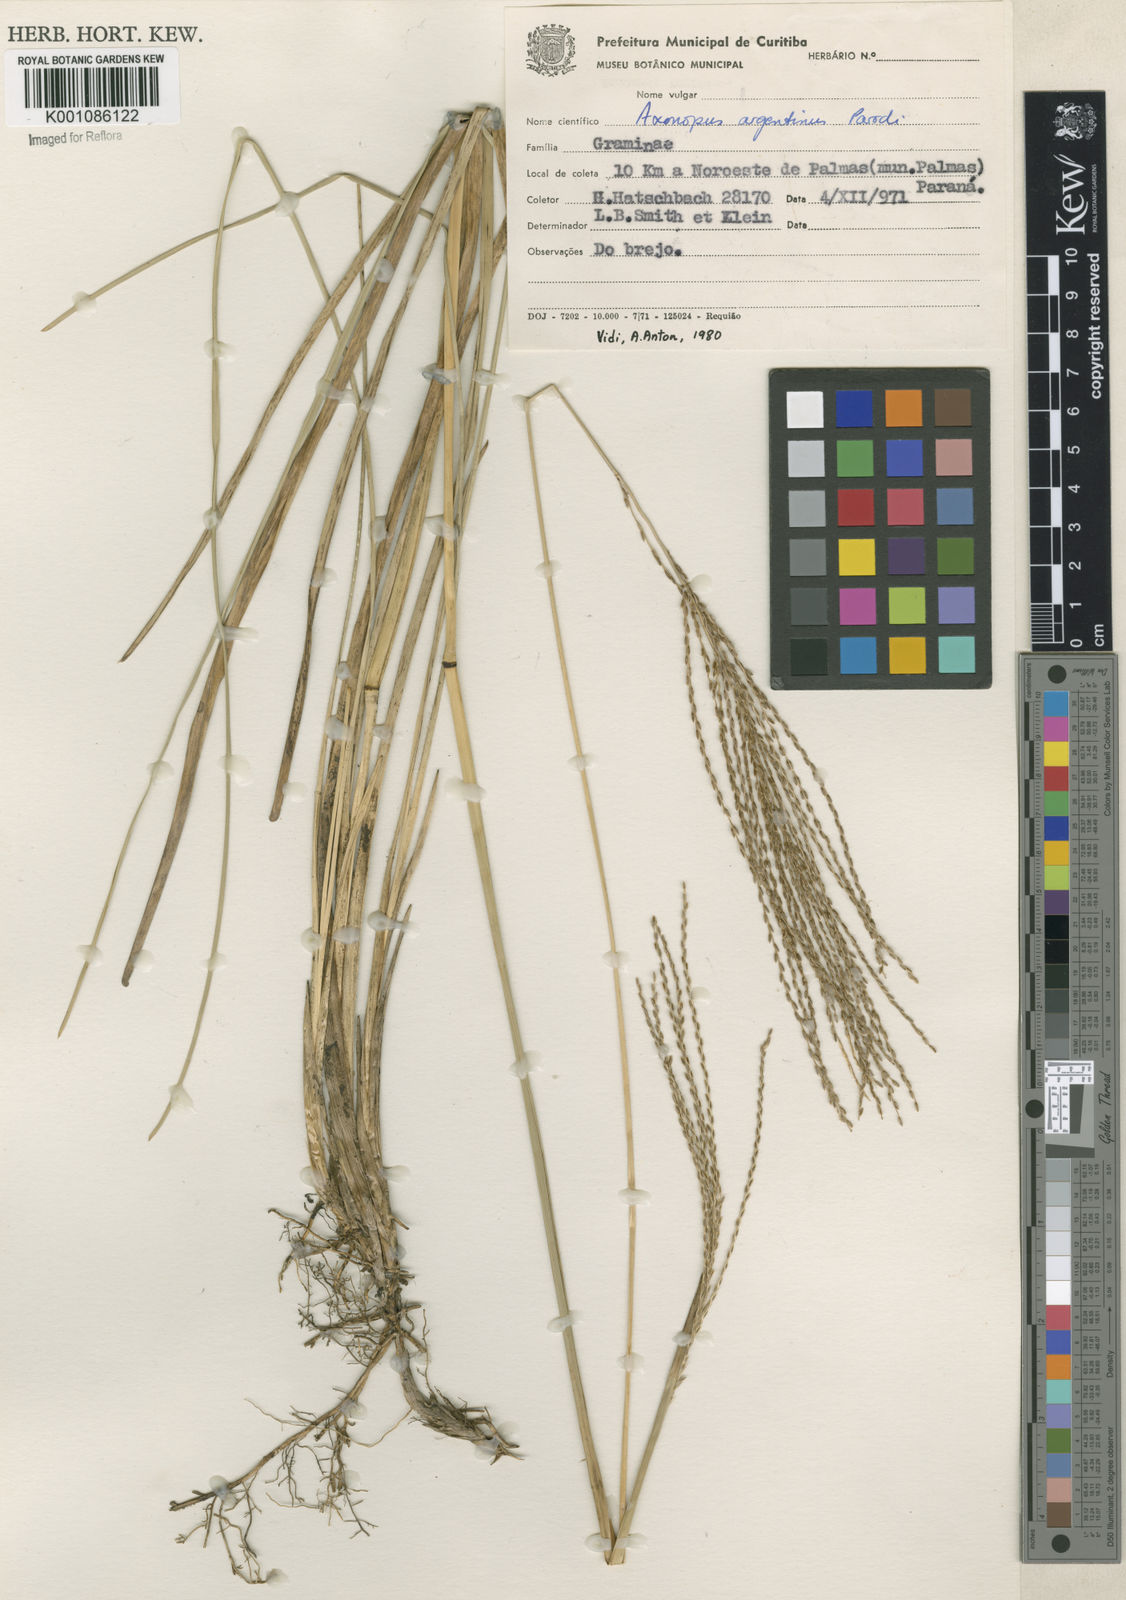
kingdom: Plantae
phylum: Tracheophyta
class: Liliopsida
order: Poales
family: Poaceae
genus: Axonopus
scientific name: Axonopus suffultus
